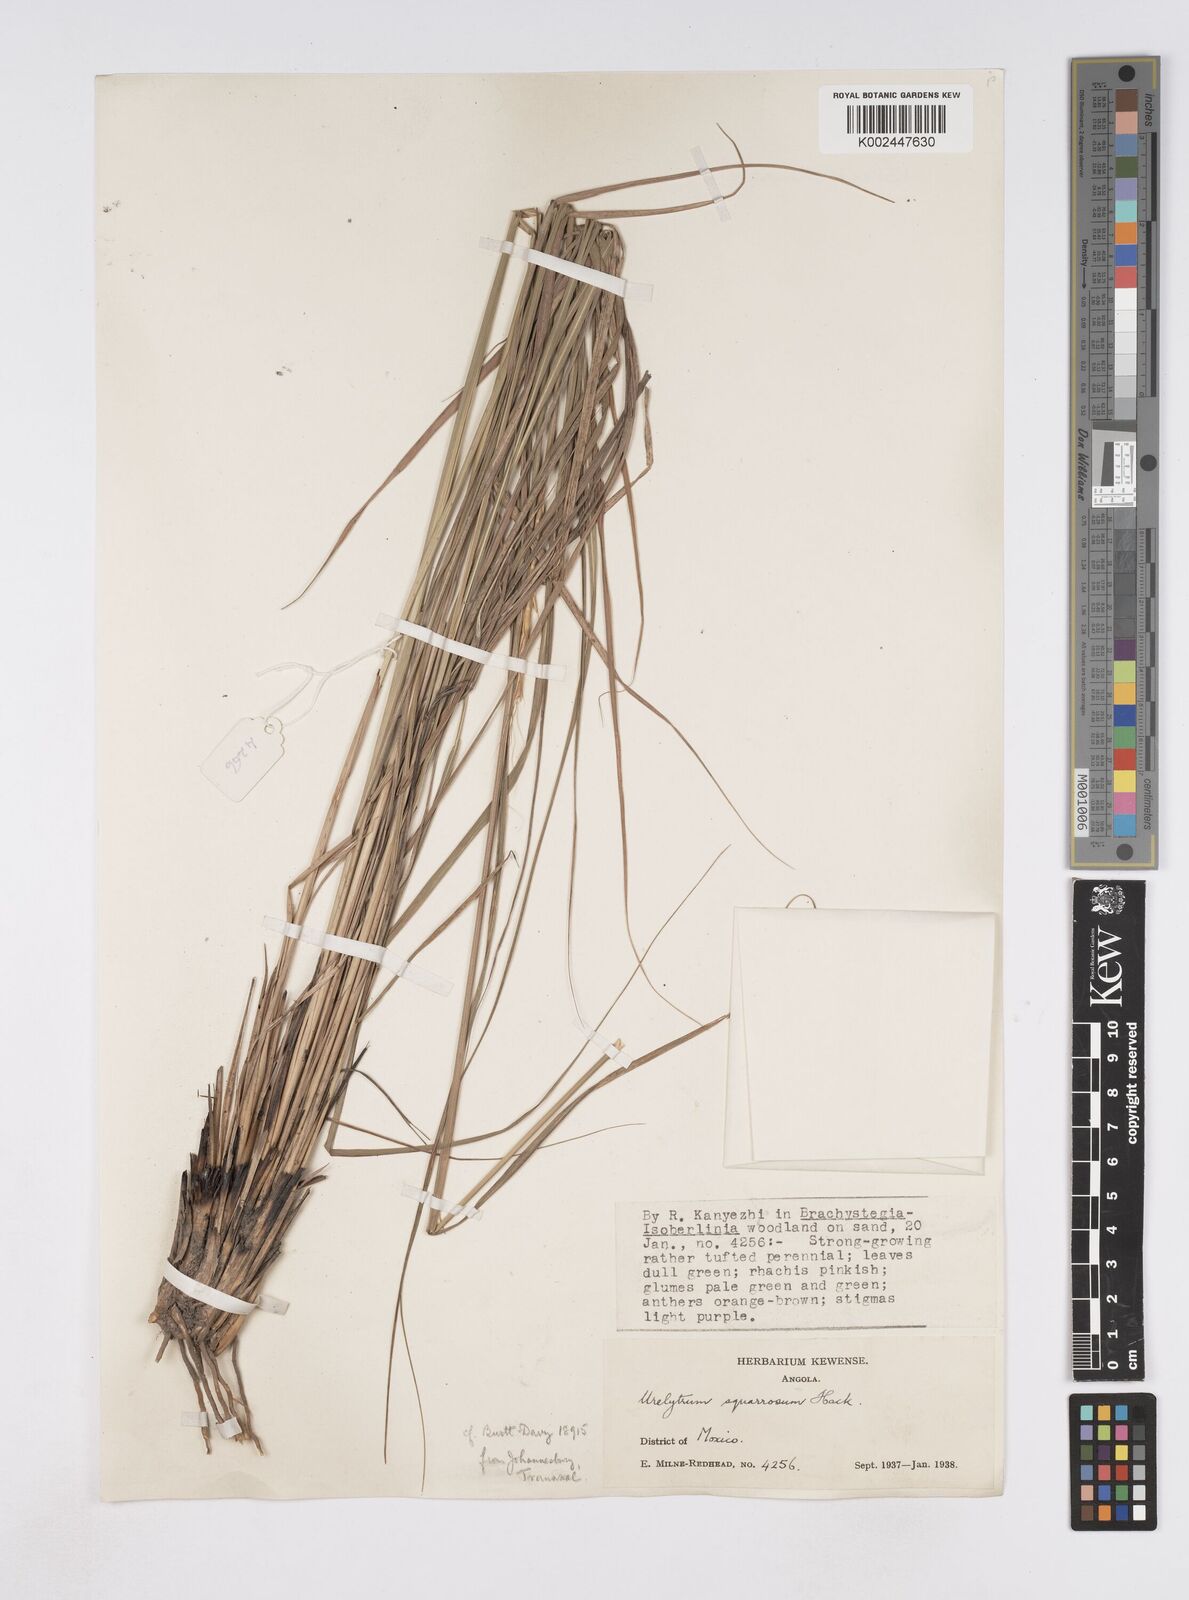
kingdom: Plantae
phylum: Tracheophyta
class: Liliopsida
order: Poales
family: Poaceae
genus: Urelytrum
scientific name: Urelytrum agropyroides
